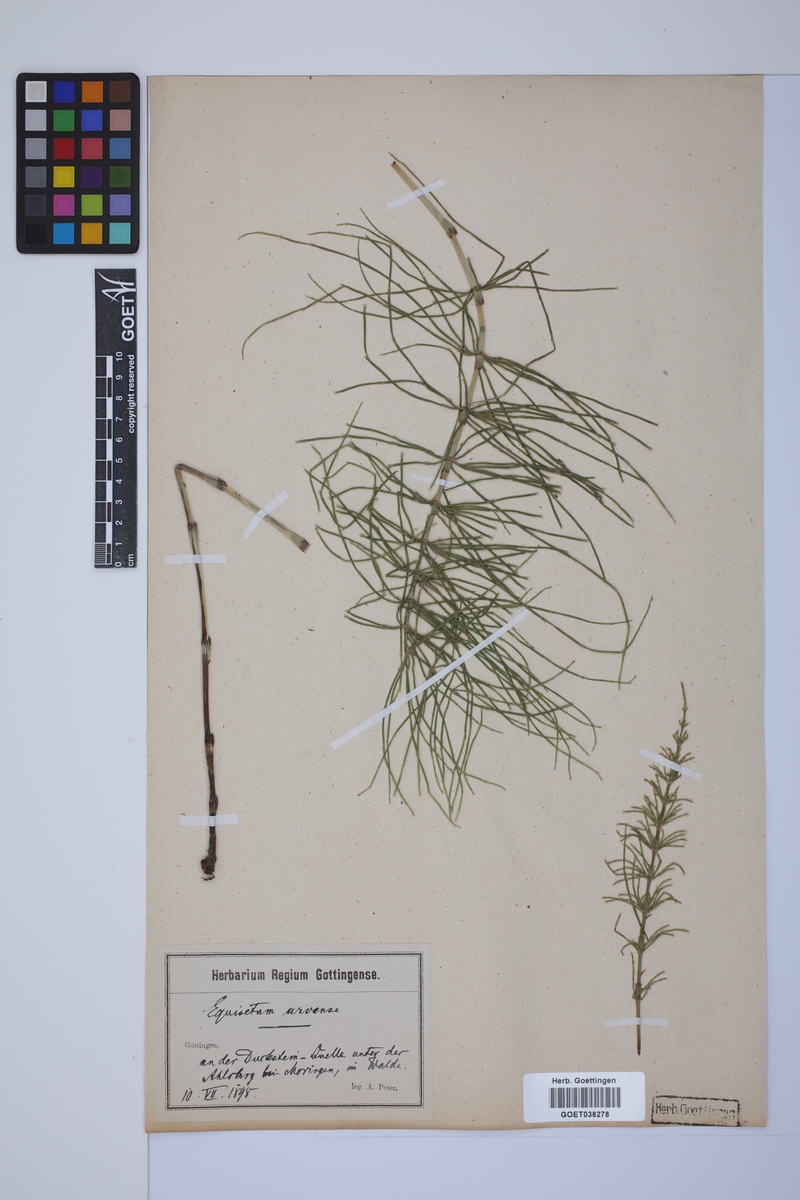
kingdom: Plantae
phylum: Tracheophyta
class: Polypodiopsida
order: Equisetales
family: Equisetaceae
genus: Equisetum
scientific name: Equisetum arvense
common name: Field horsetail
